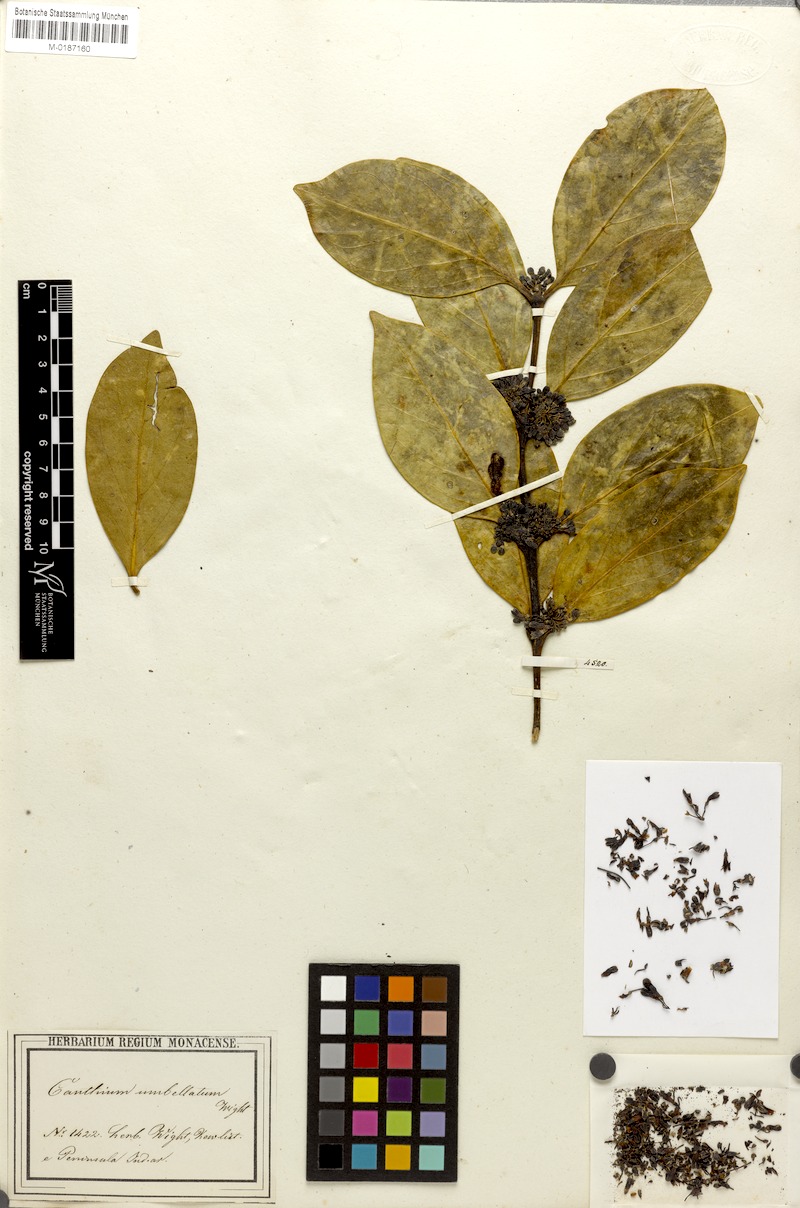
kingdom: Plantae
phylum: Tracheophyta
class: Magnoliopsida
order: Gentianales
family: Rubiaceae
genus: Psydrax
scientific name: Psydrax umbellatus
